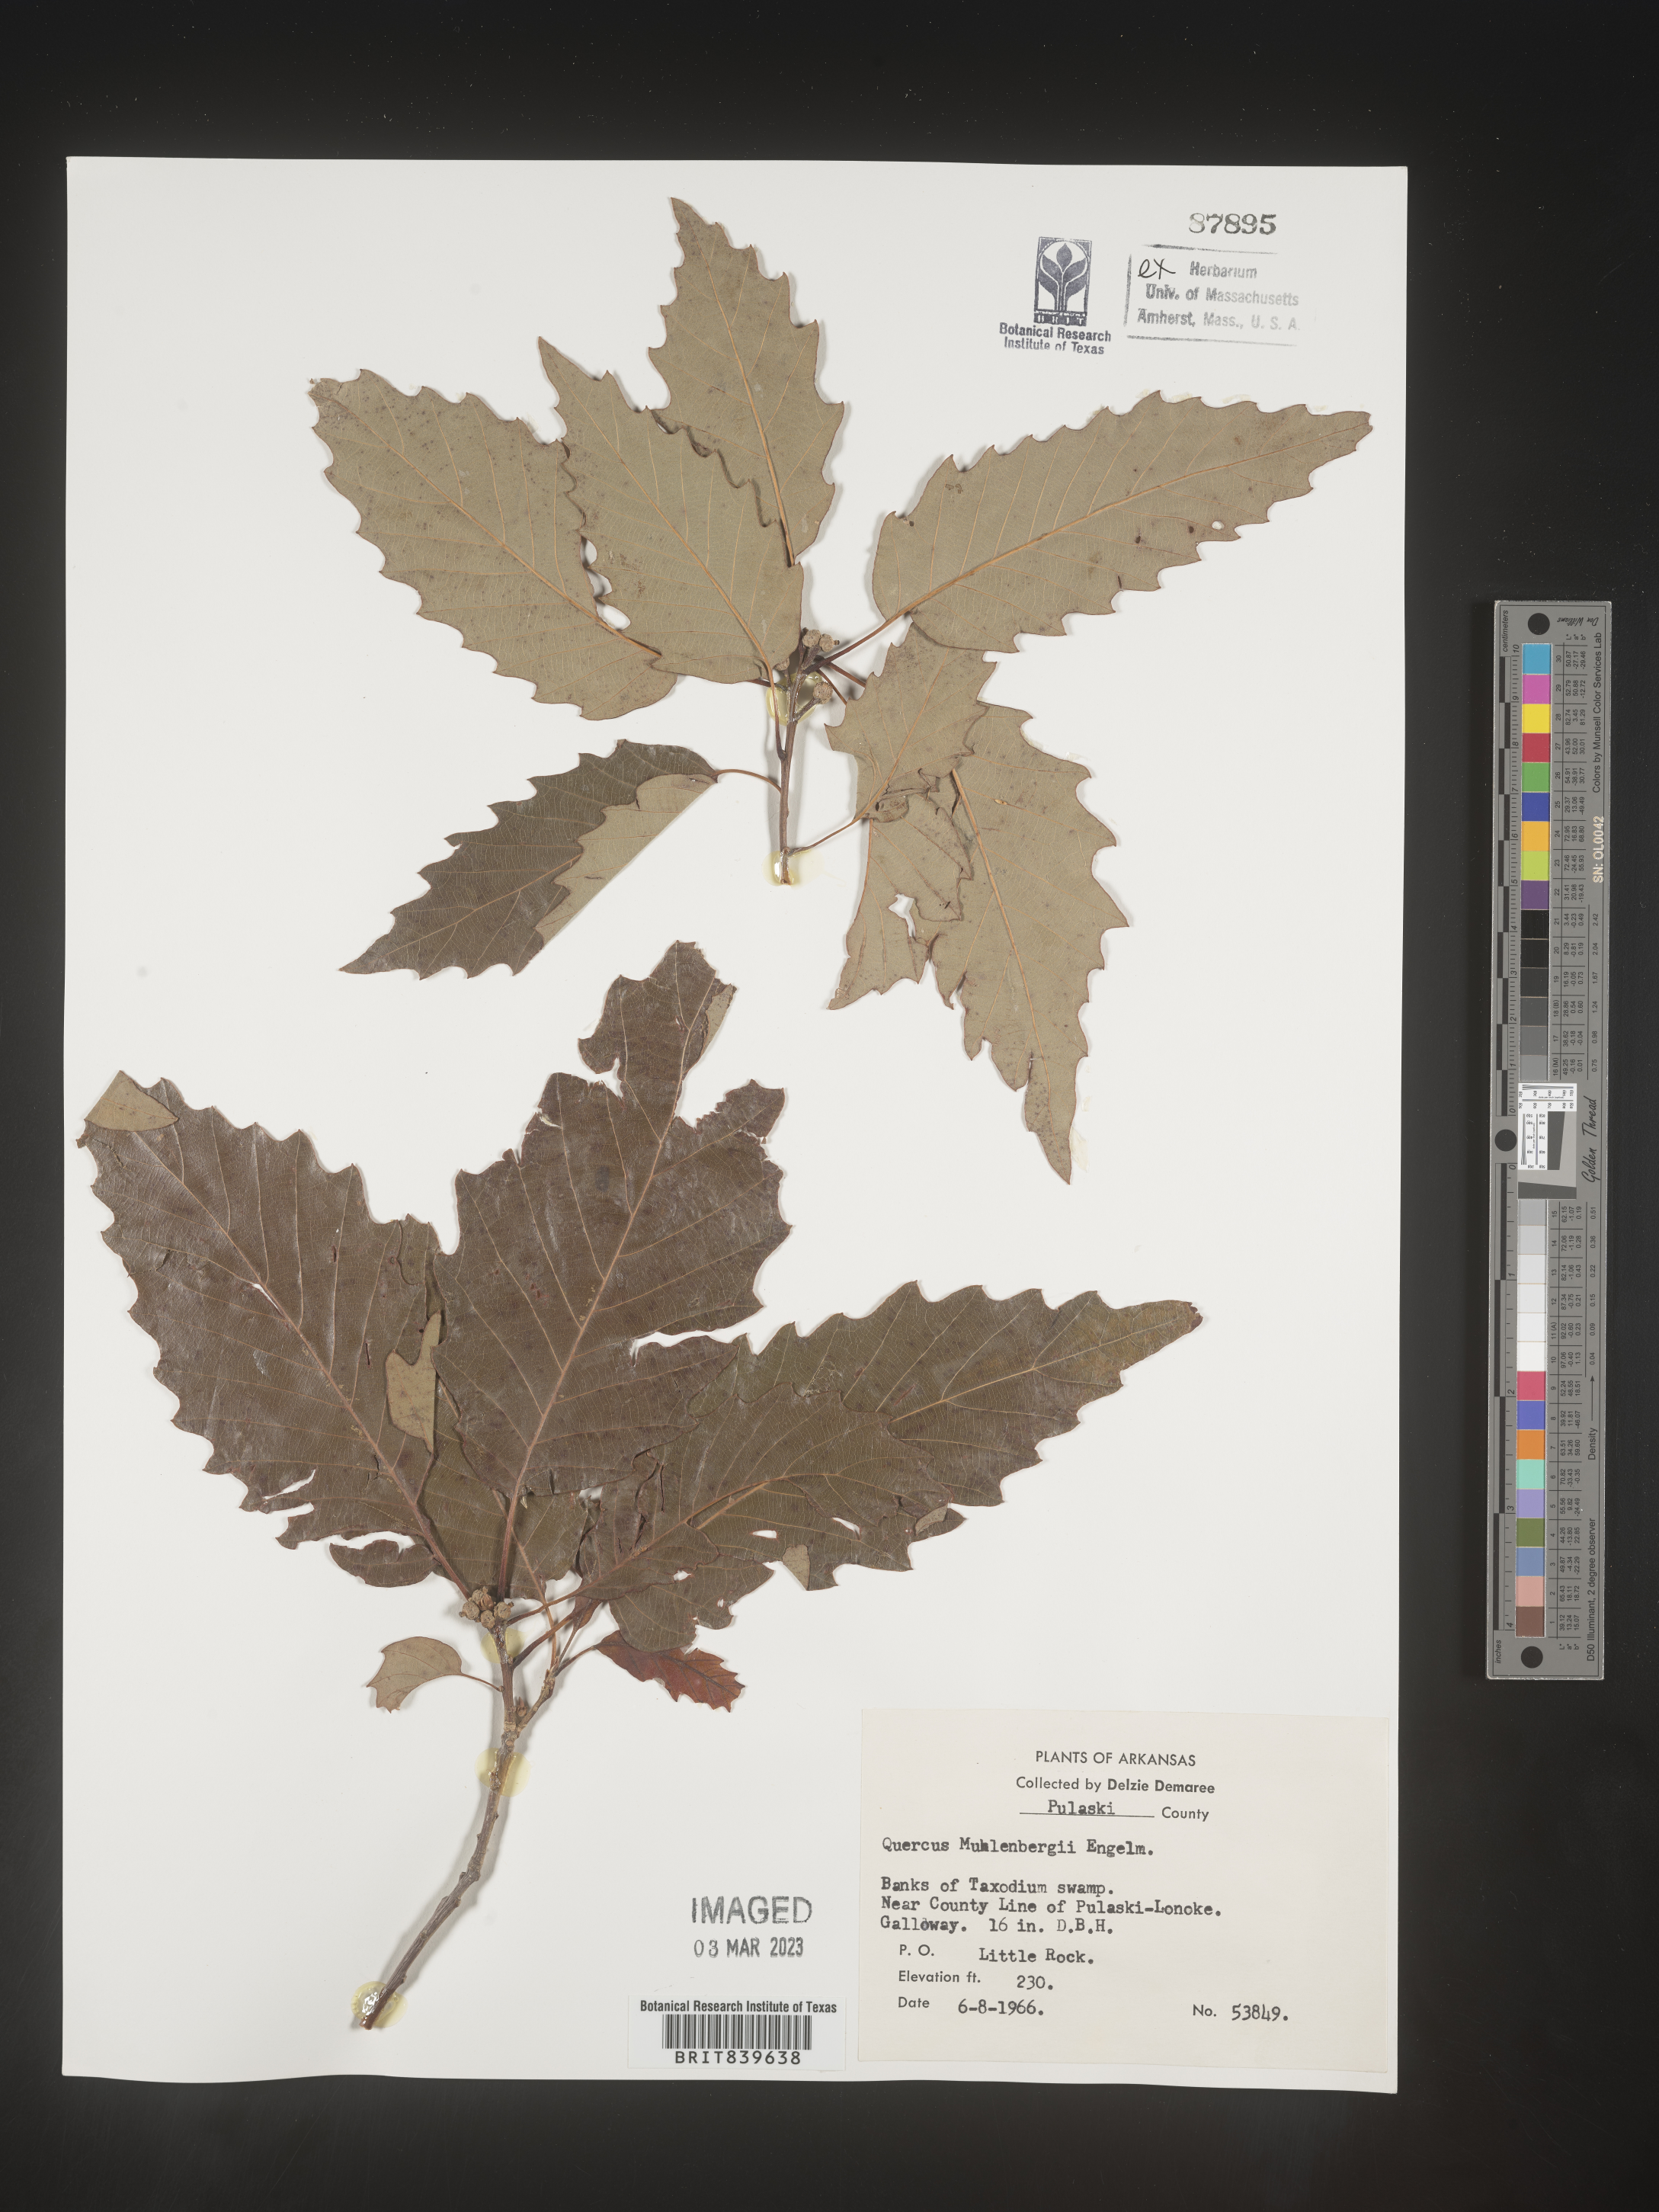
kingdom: Plantae
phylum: Tracheophyta
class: Magnoliopsida
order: Fagales
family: Fagaceae
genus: Quercus
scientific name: Quercus muehlenbergii
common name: Chinkapin oak
